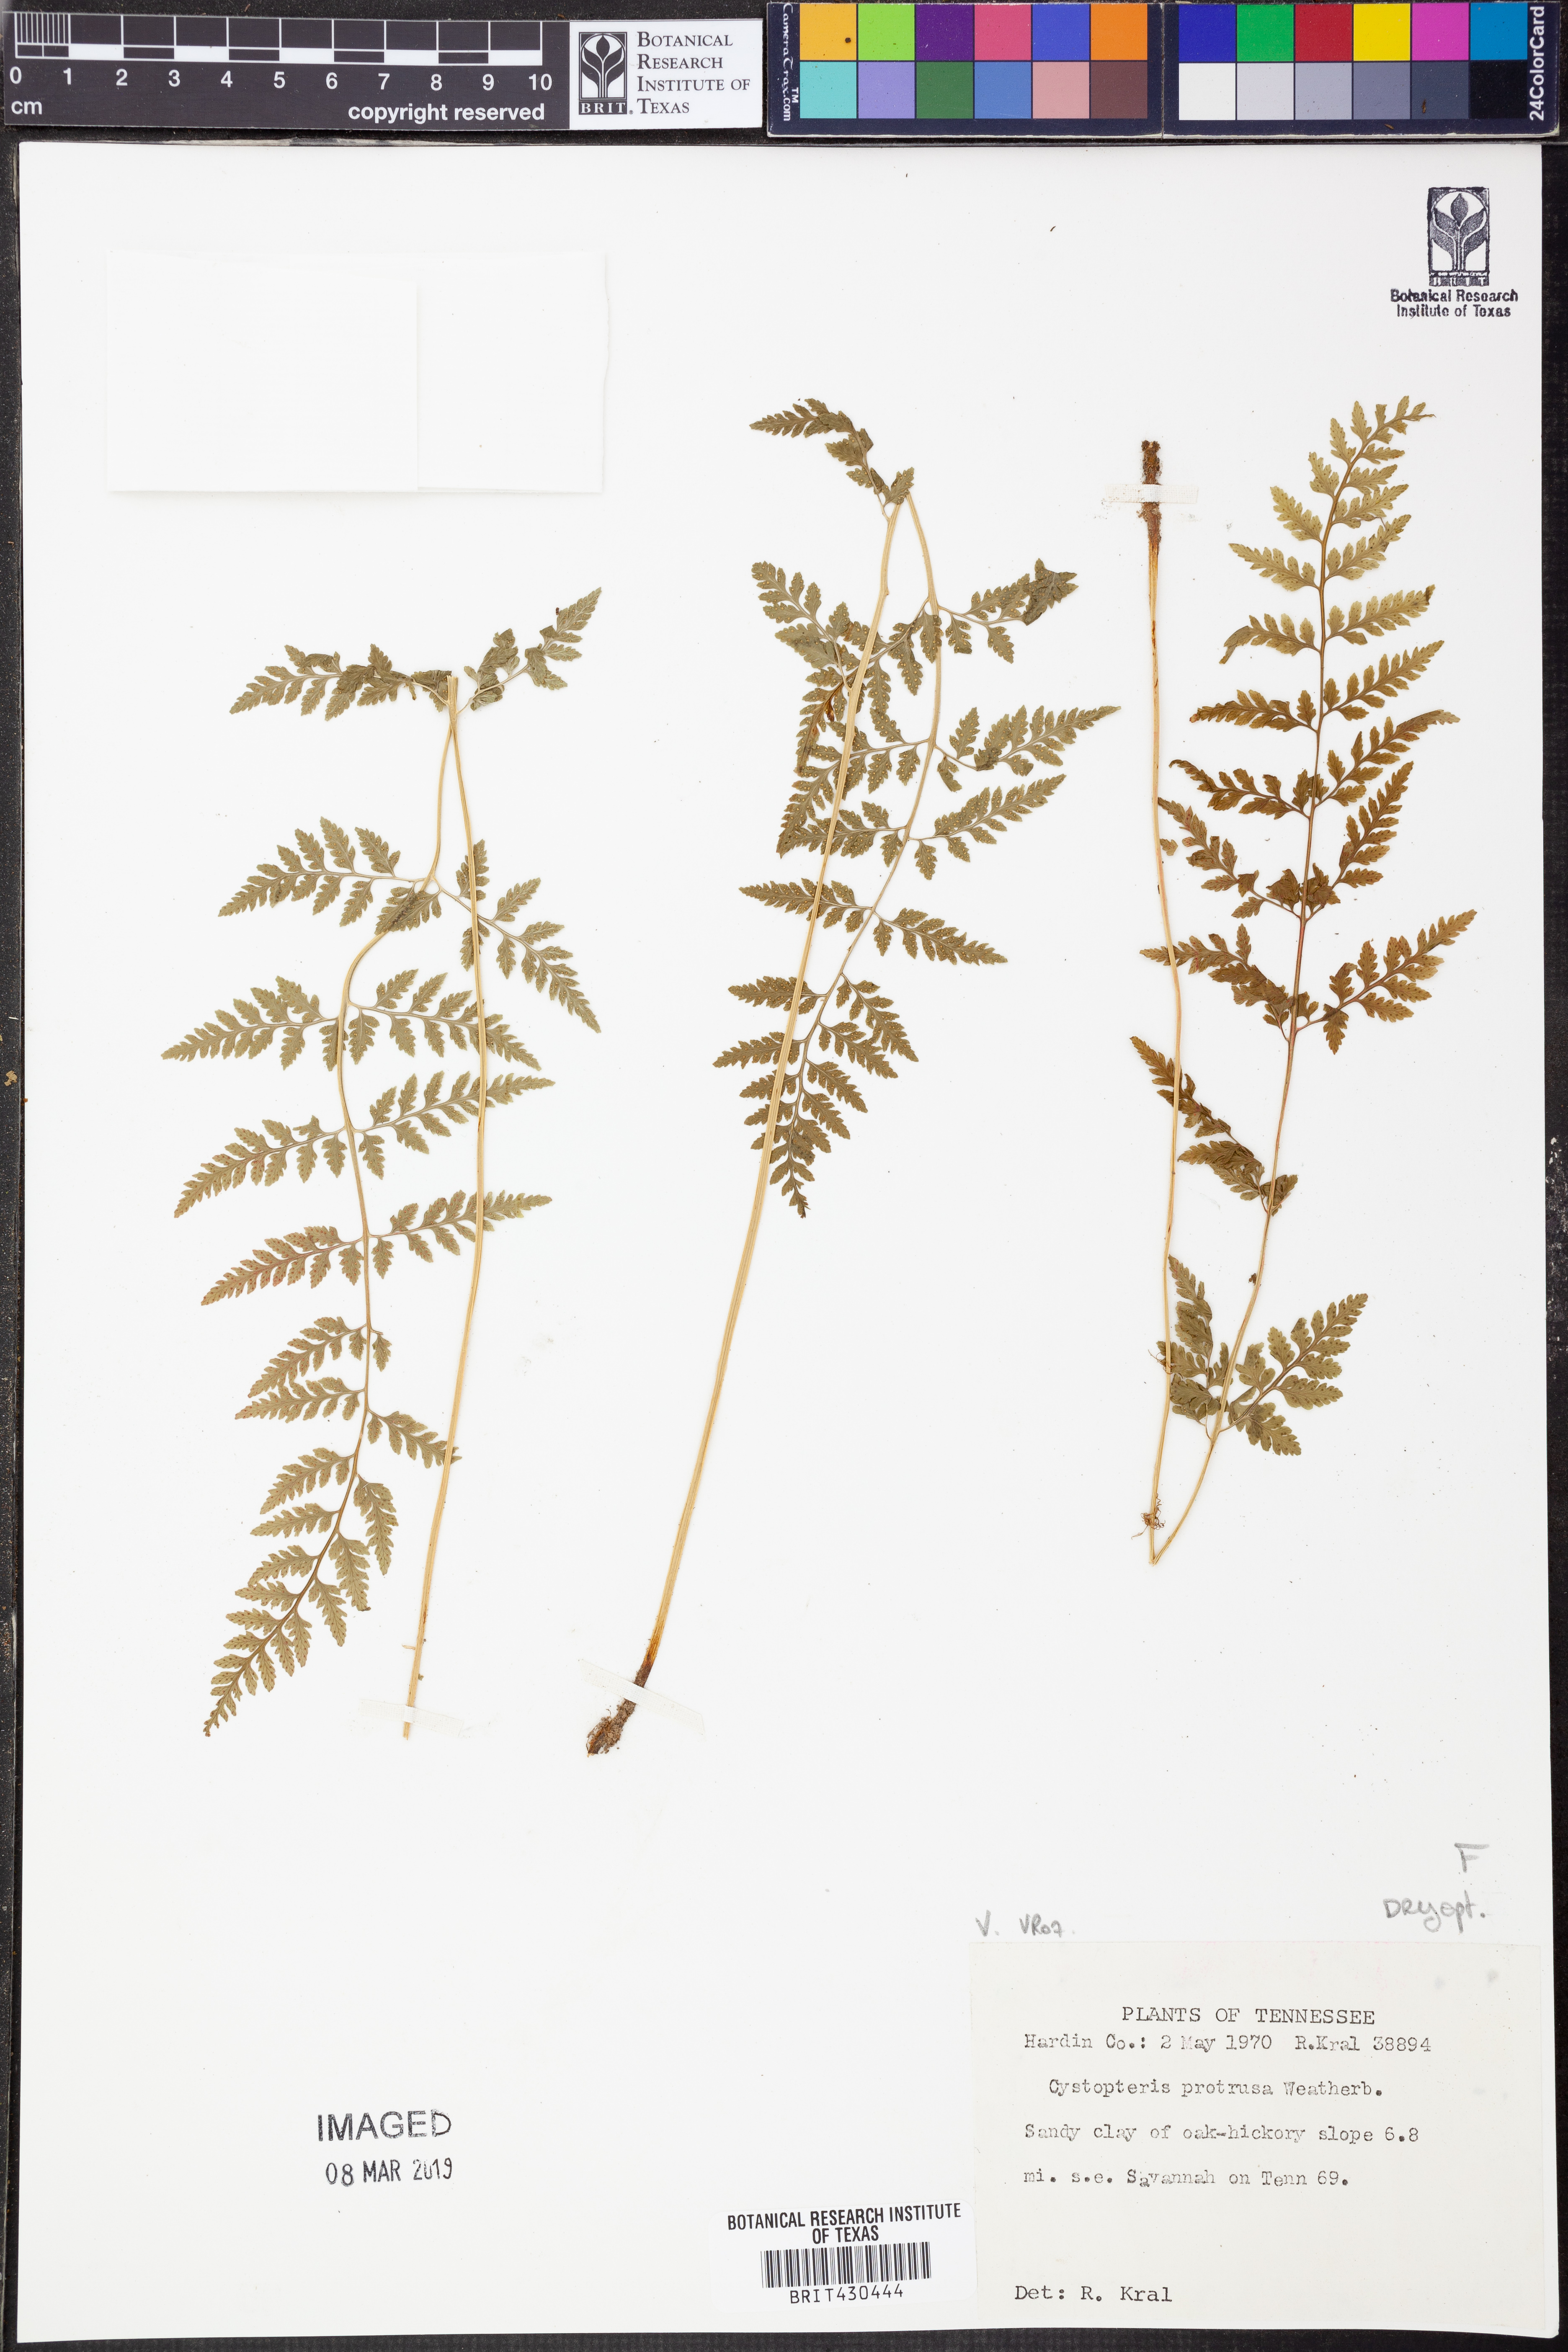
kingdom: Plantae
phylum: Tracheophyta
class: Polypodiopsida
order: Polypodiales
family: Cystopteridaceae
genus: Cystopteris
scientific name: Cystopteris protrusa
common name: Lowland brittle fern
